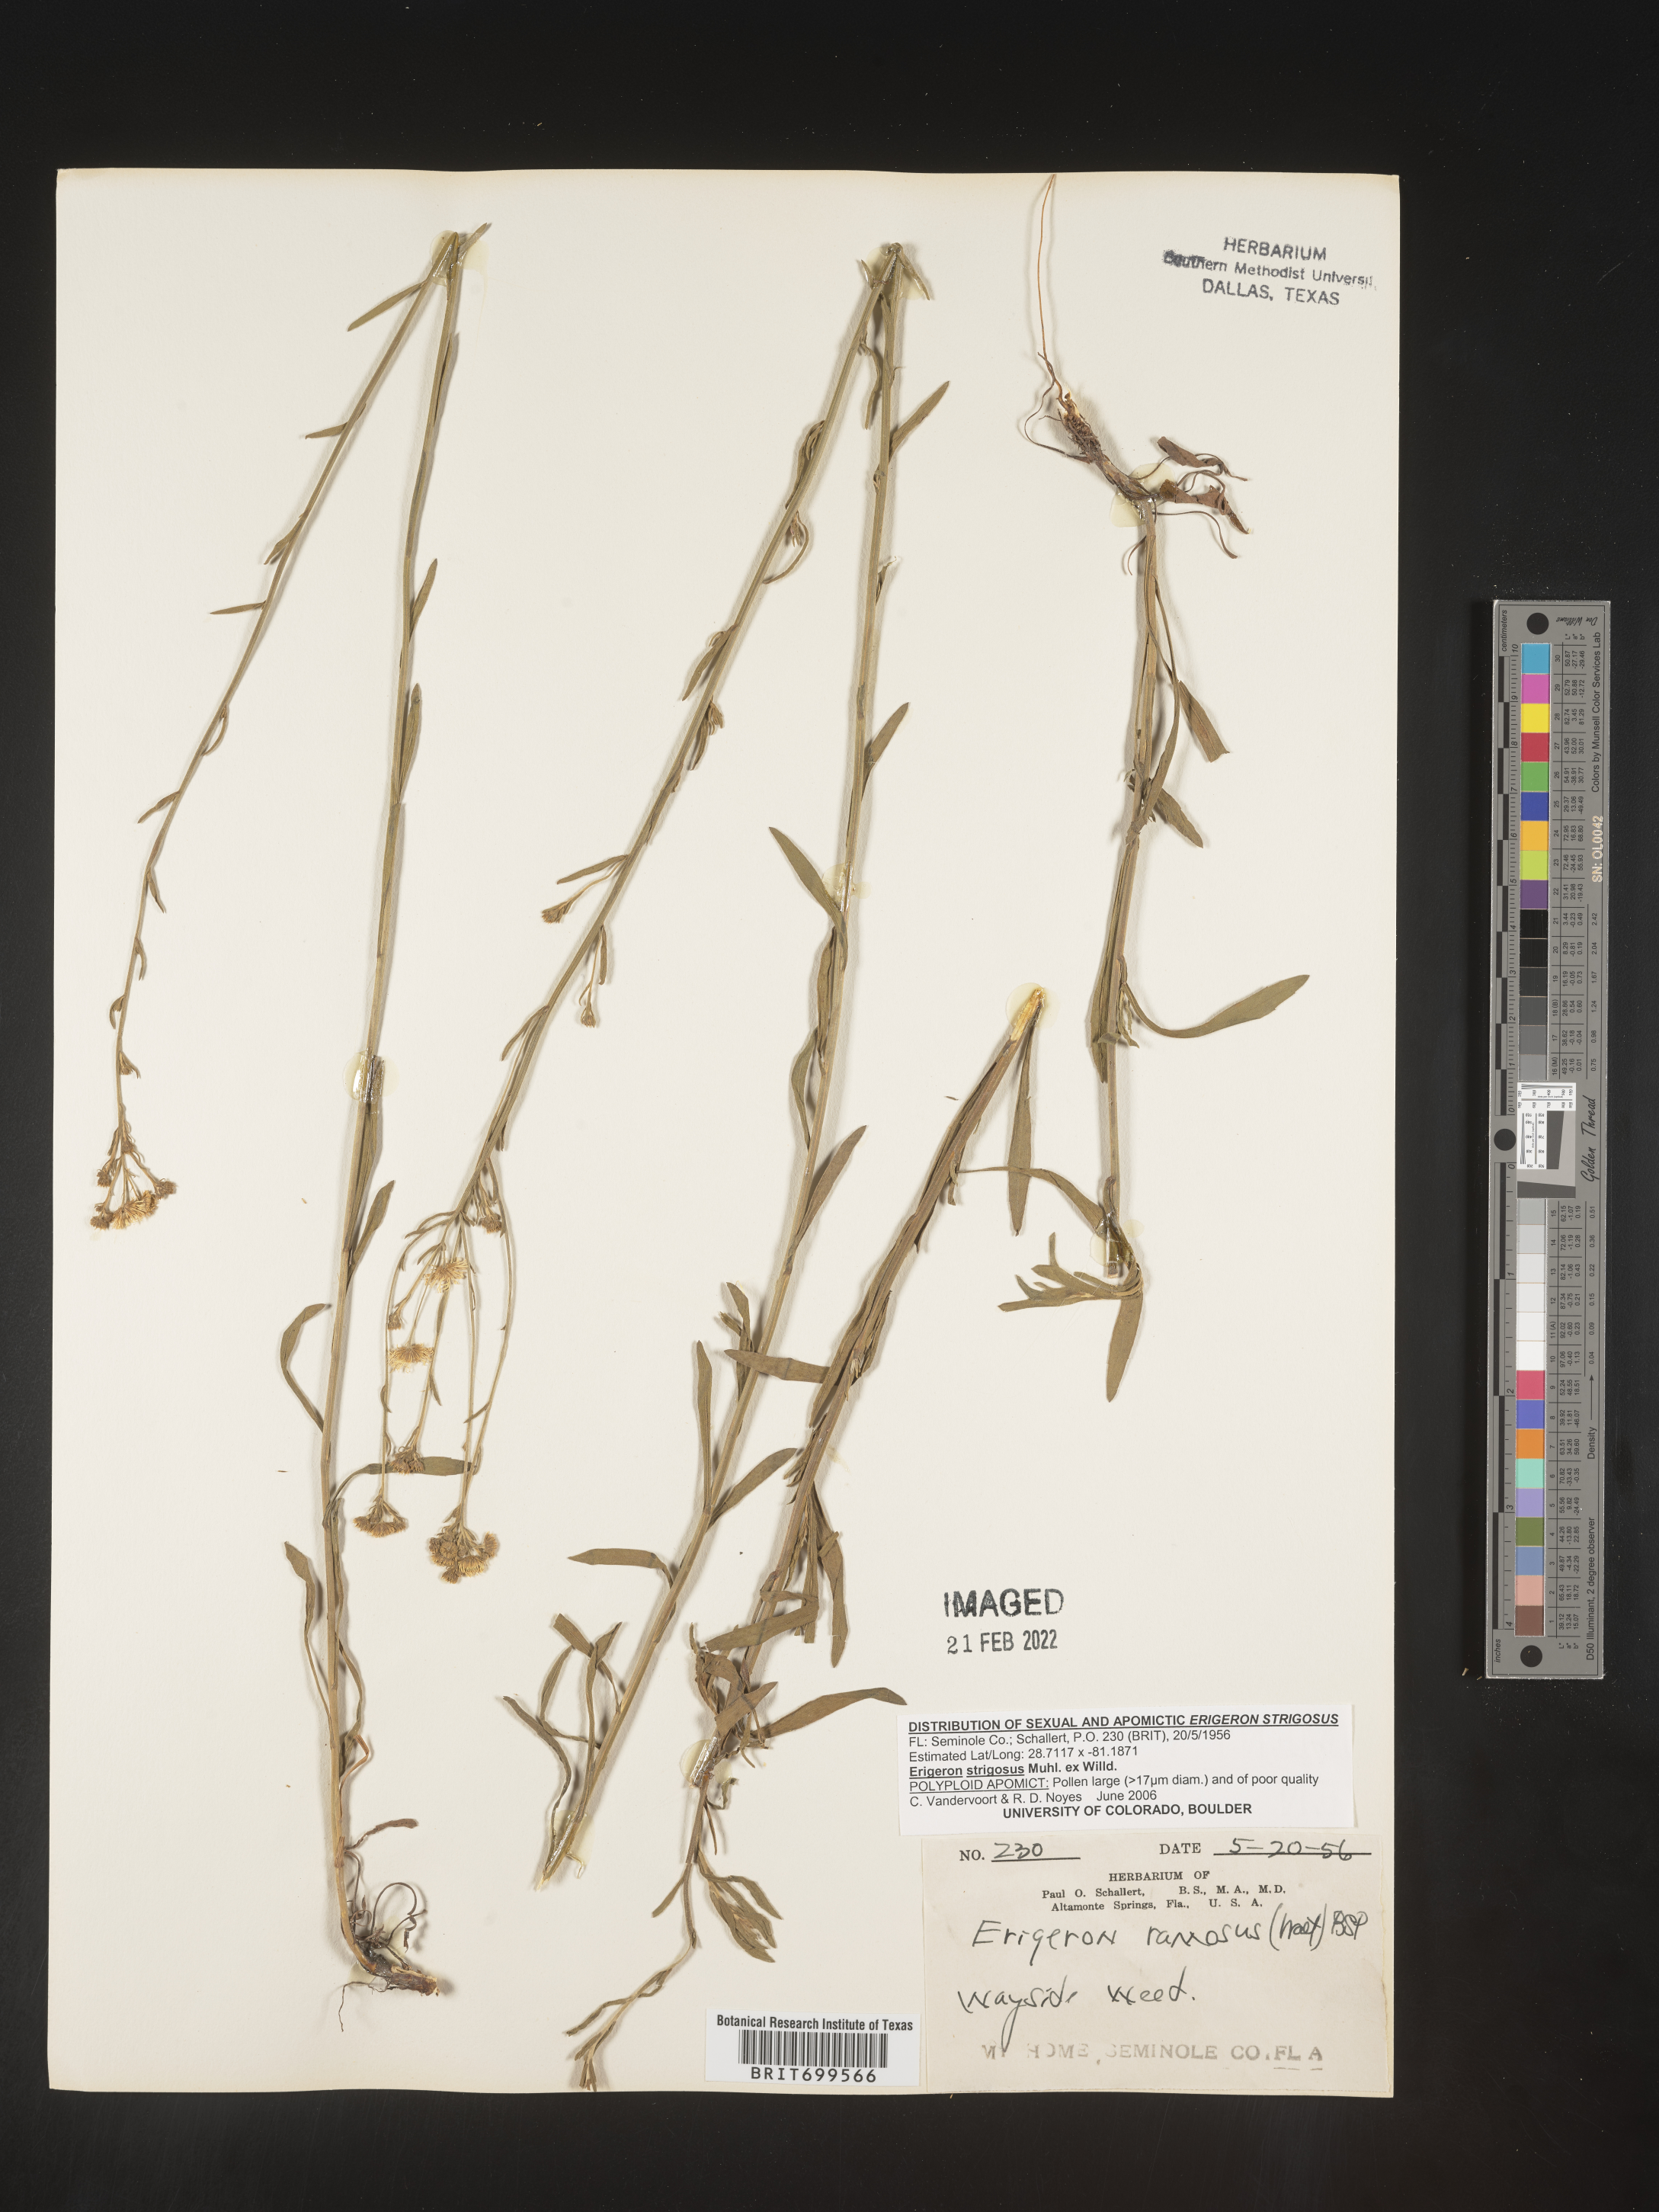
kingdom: Plantae
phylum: Tracheophyta
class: Magnoliopsida
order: Asterales
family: Asteraceae
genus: Erigeron
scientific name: Erigeron strigosus
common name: Common eastern fleabane
